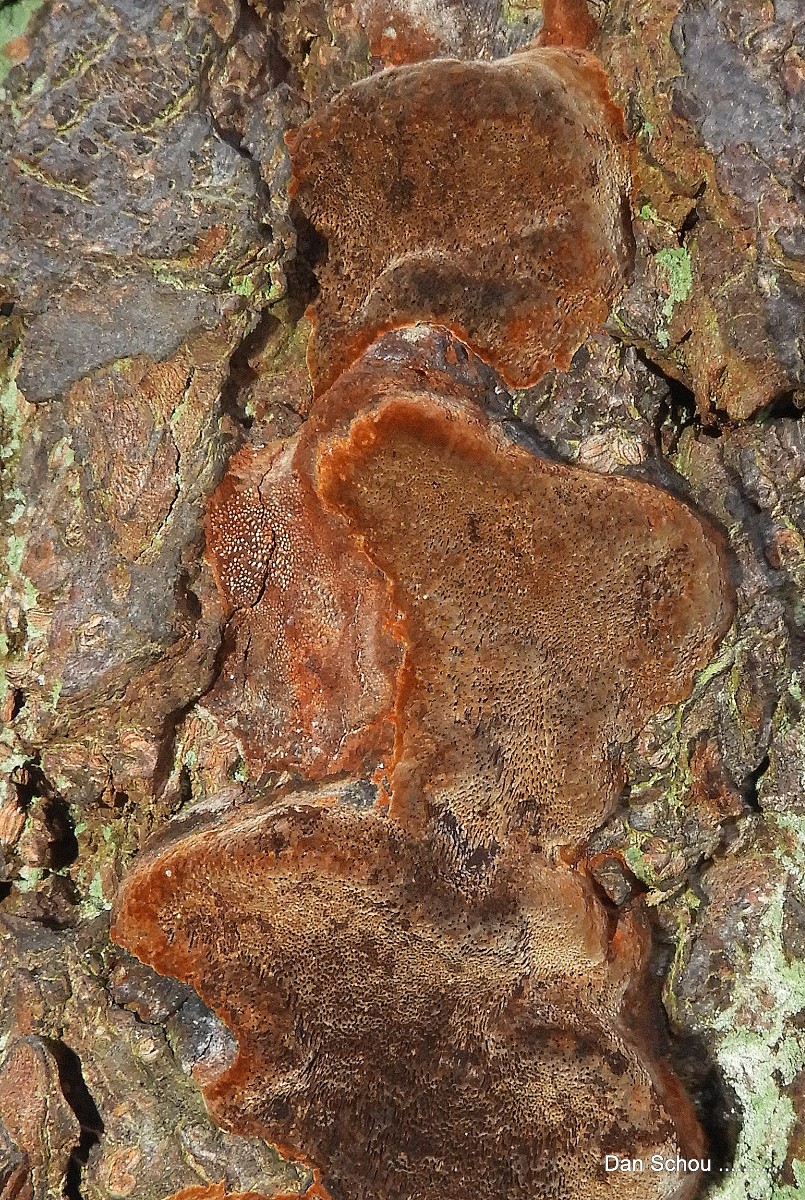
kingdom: Fungi
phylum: Basidiomycota
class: Agaricomycetes
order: Hymenochaetales
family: Hymenochaetaceae
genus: Phellinus
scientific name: Phellinus pomaceus
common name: blomme-ildporesvamp
